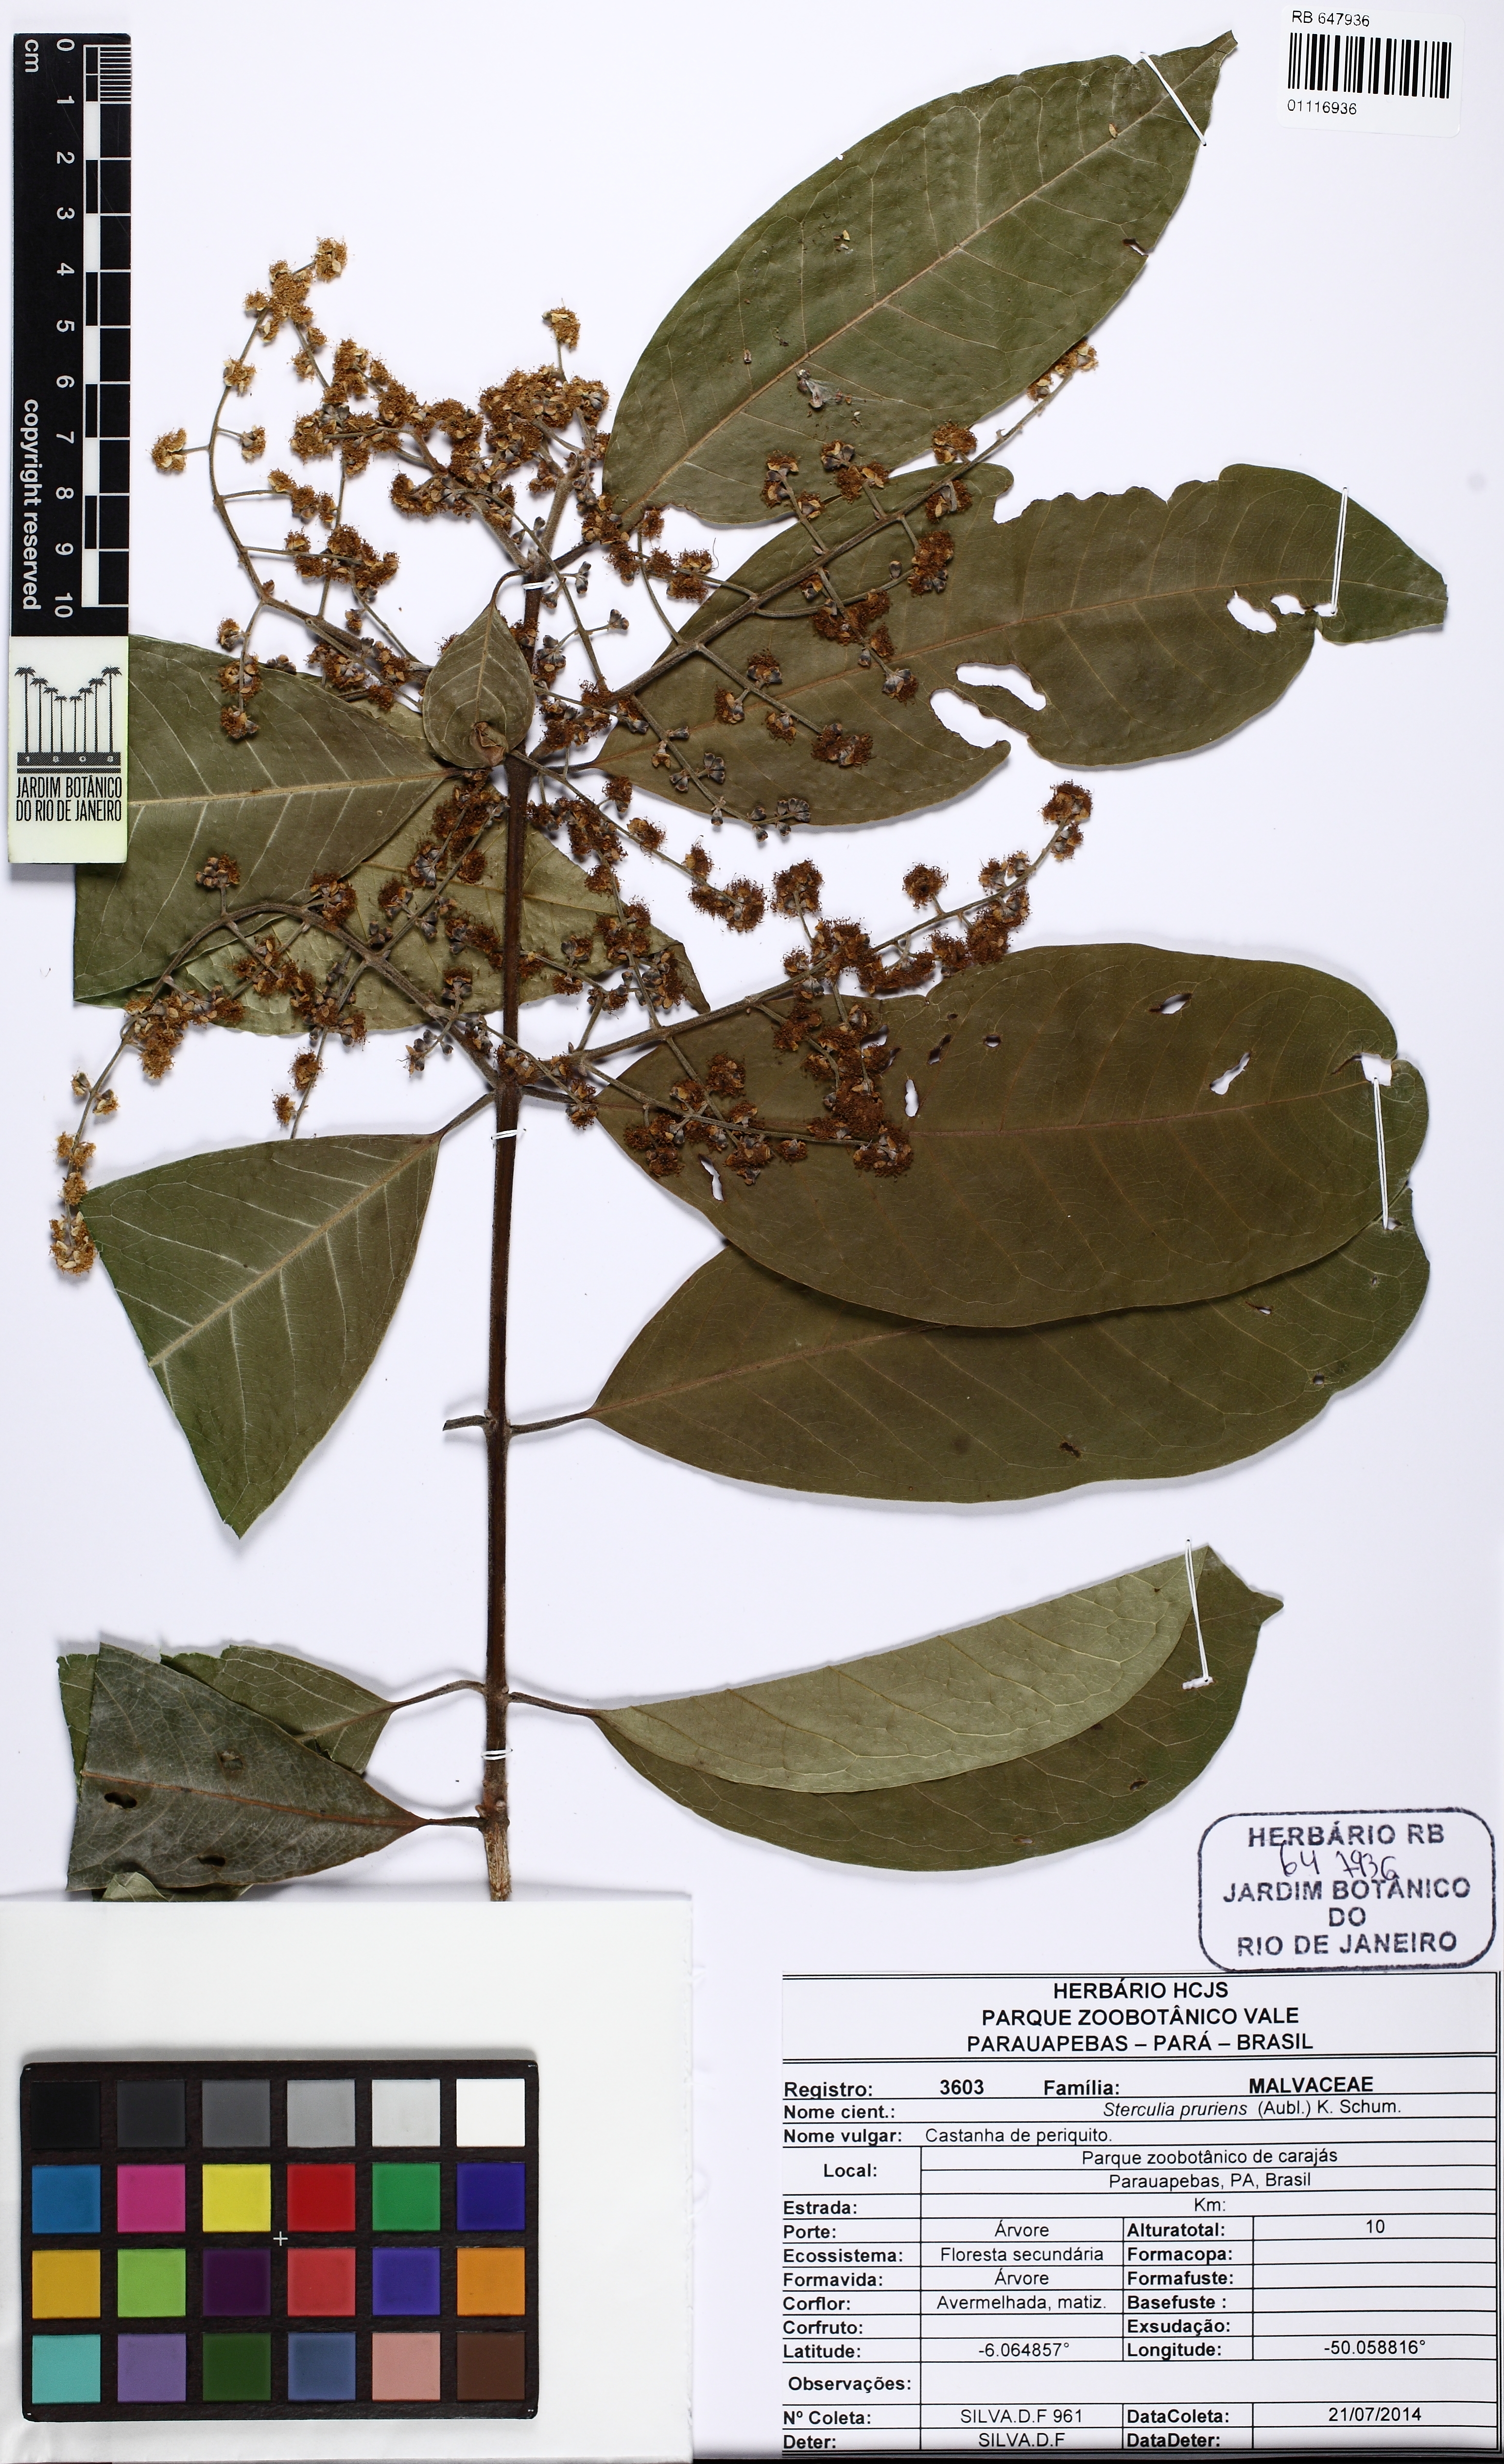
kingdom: Plantae
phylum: Tracheophyta
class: Magnoliopsida
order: Malvales
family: Malvaceae
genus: Sterculia
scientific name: Sterculia pruriens
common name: Grand mahot
